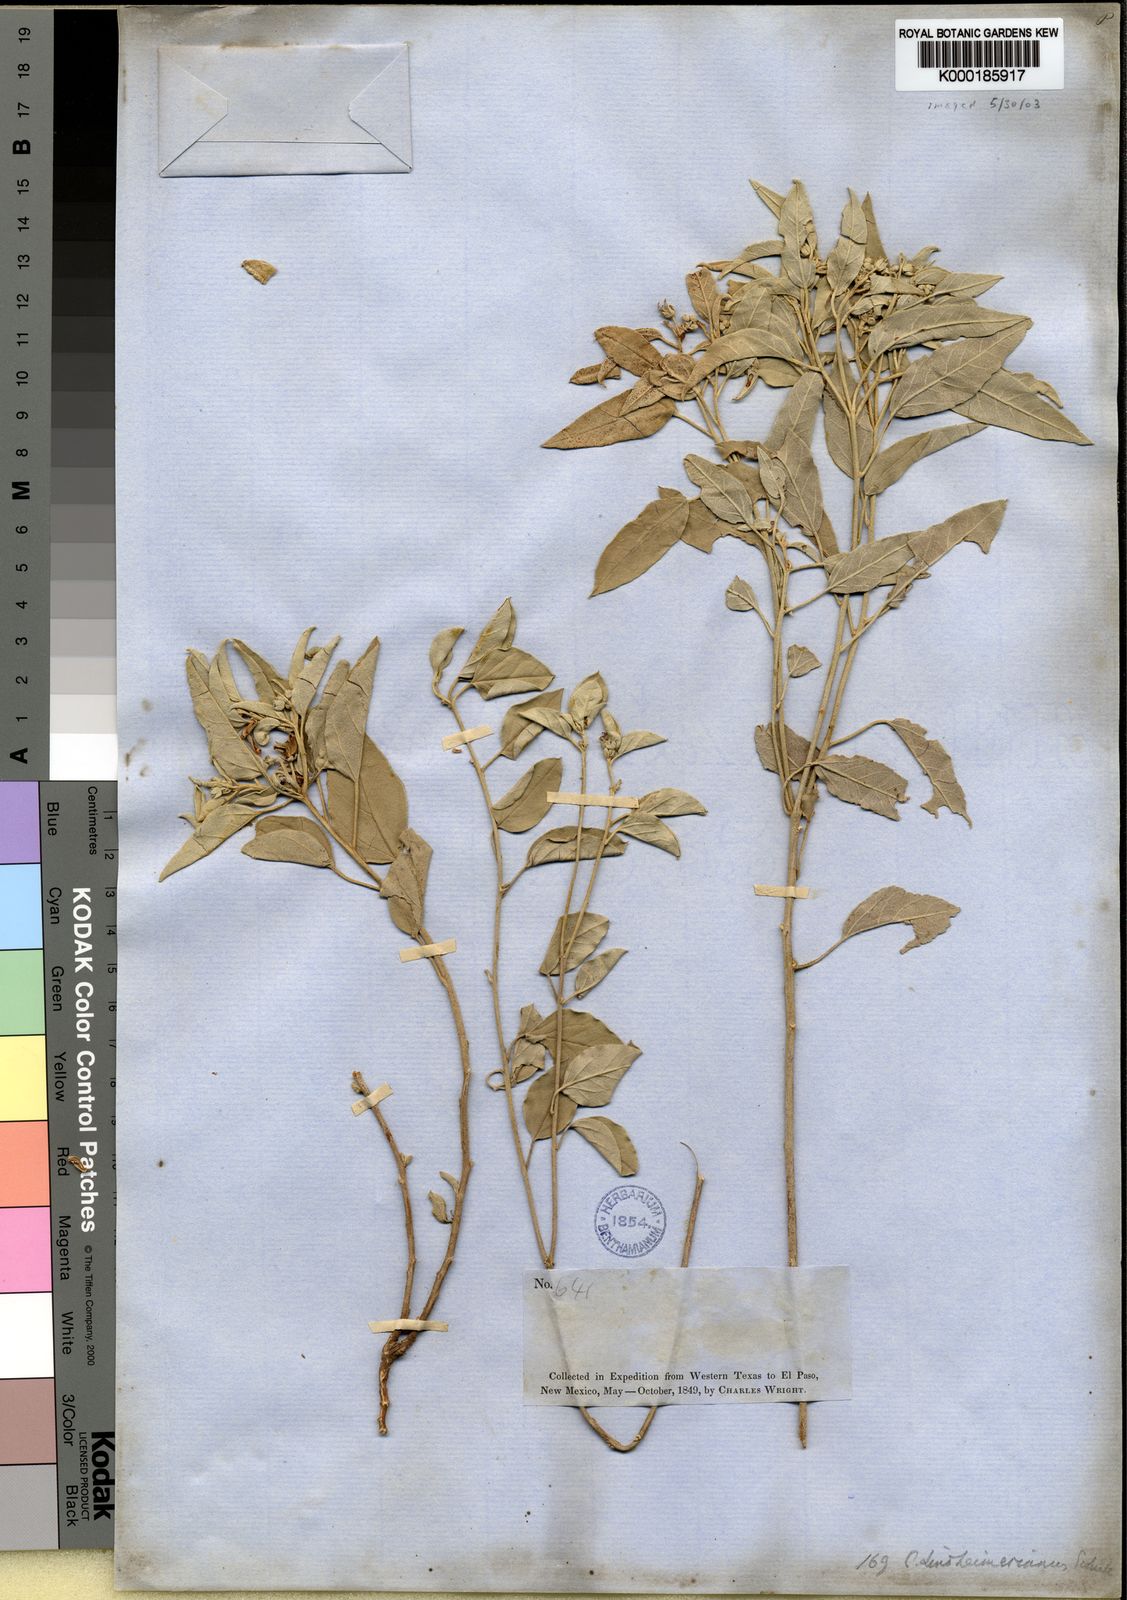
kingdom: Plantae
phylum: Tracheophyta
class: Magnoliopsida
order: Malpighiales
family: Euphorbiaceae
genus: Croton
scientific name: Croton lindheimerianus
